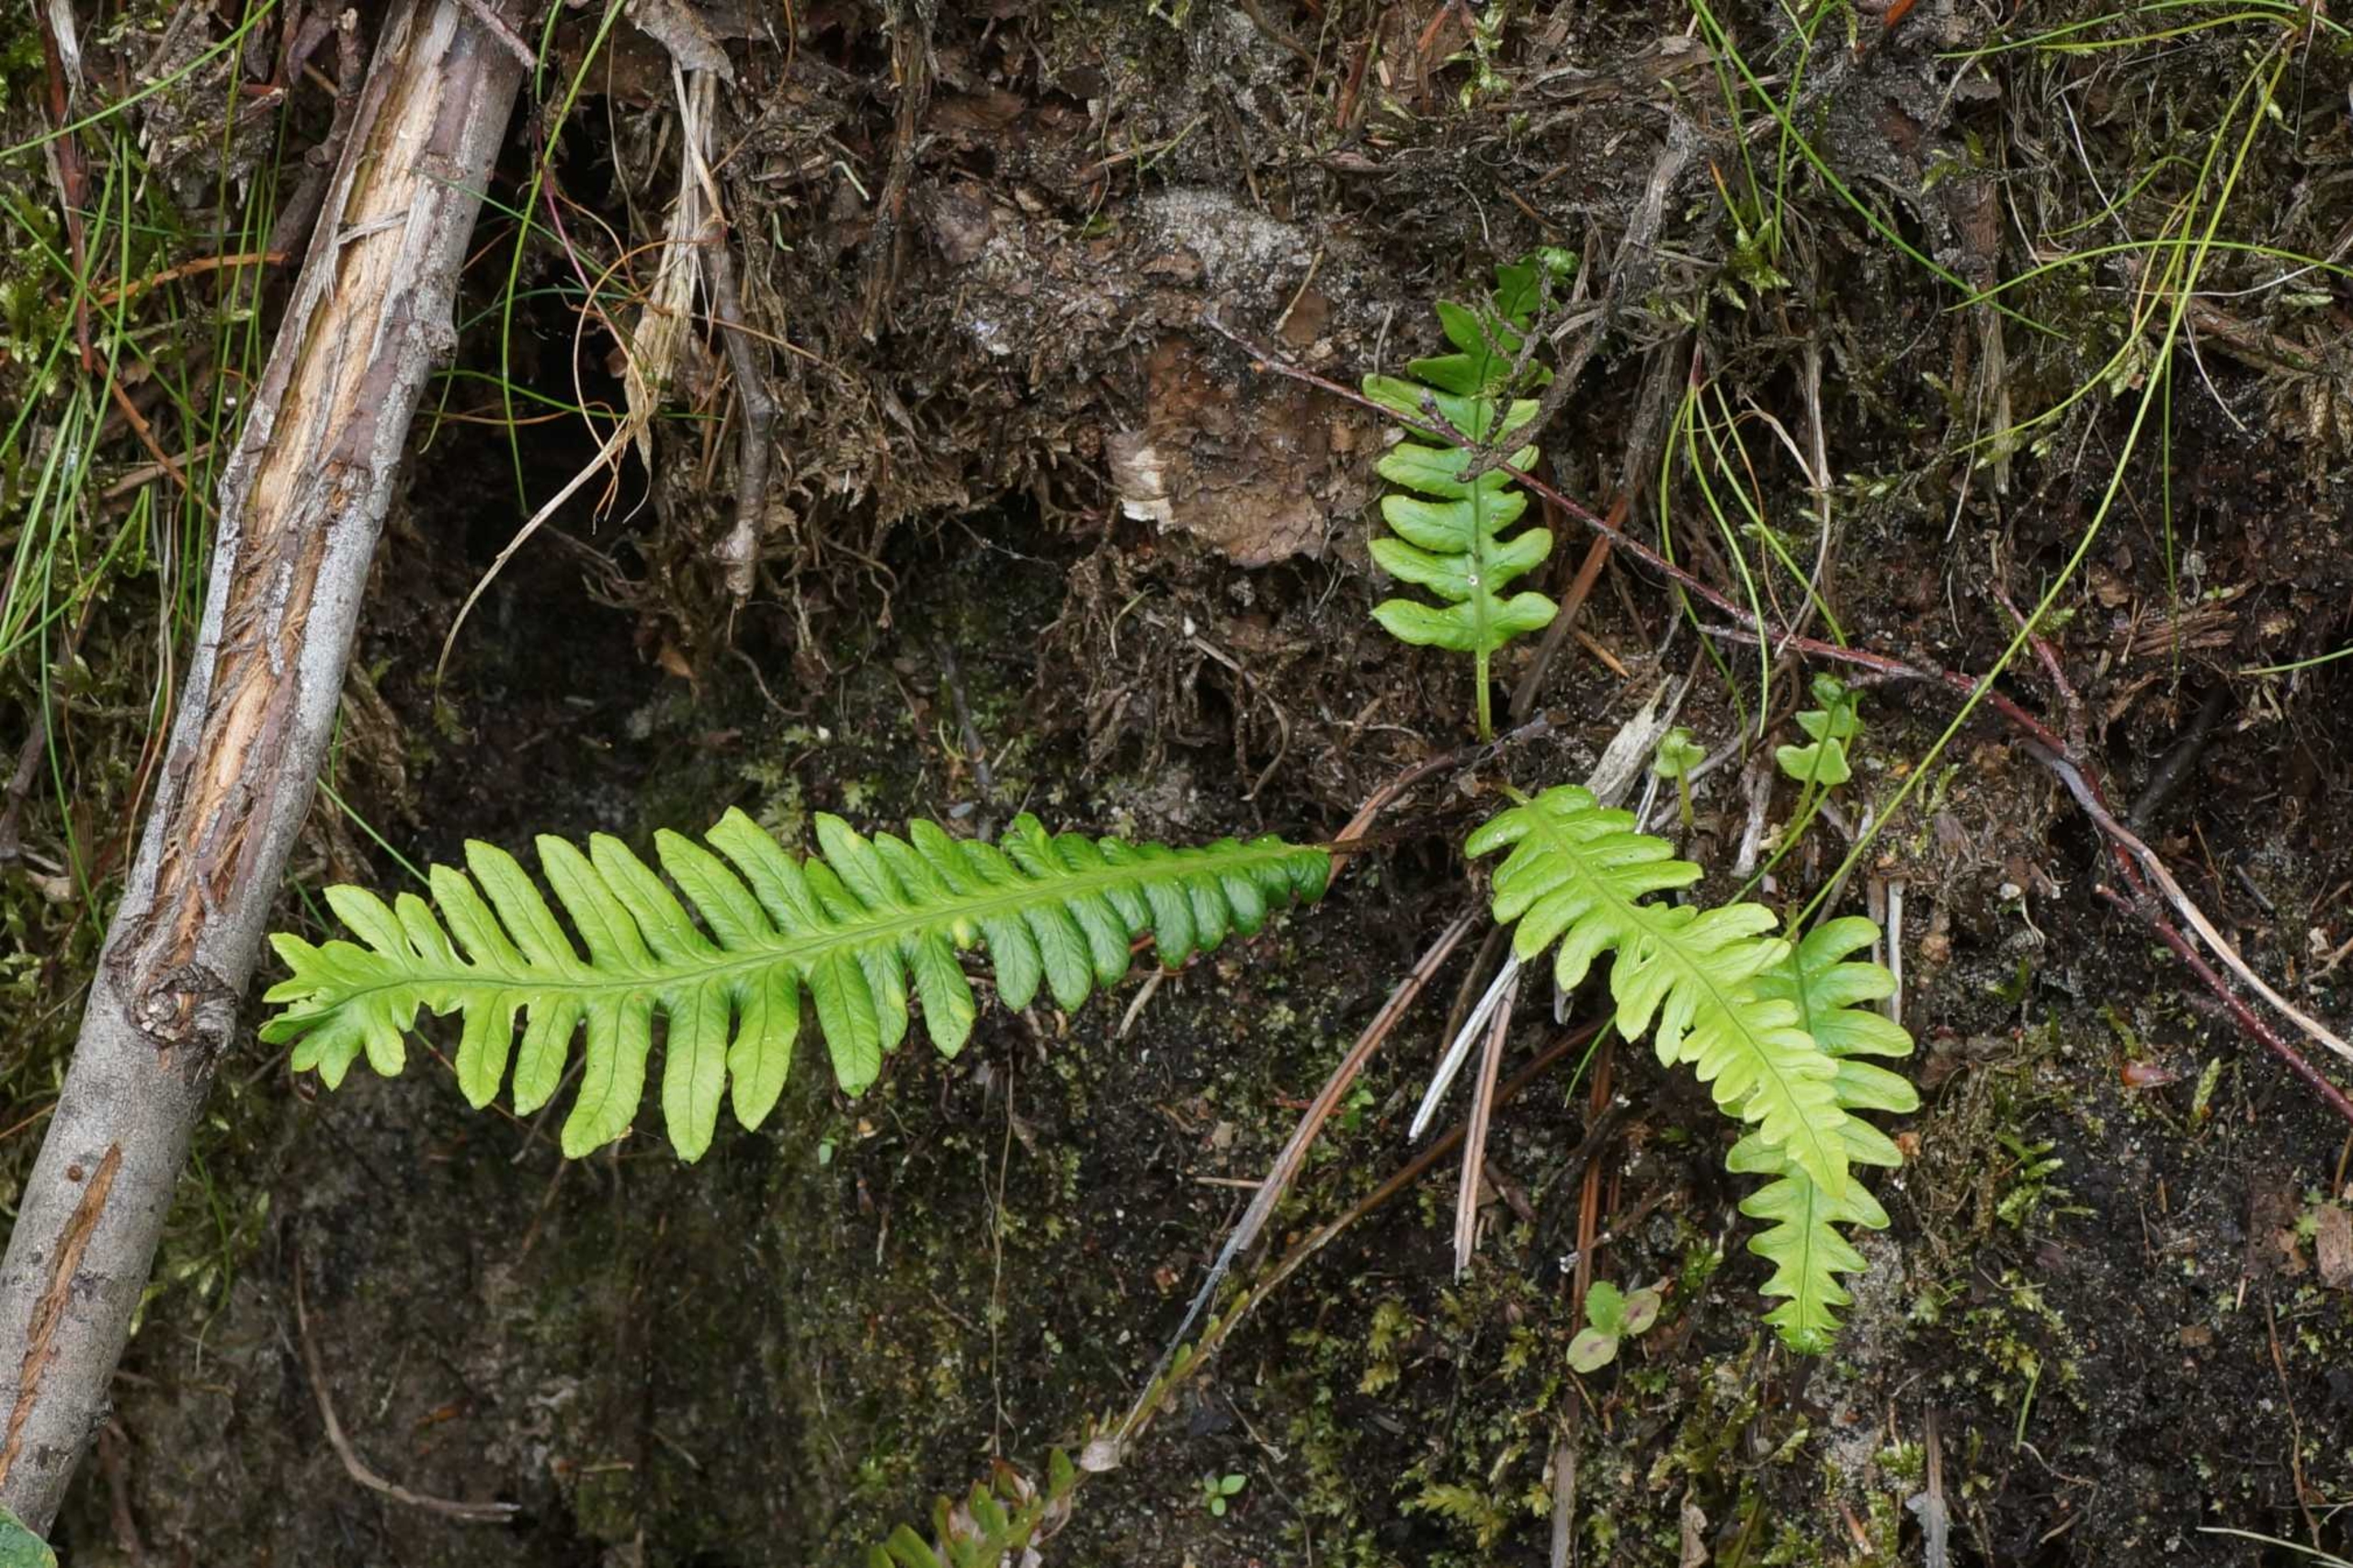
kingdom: Plantae
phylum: Tracheophyta
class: Polypodiopsida
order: Polypodiales
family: Blechnaceae
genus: Struthiopteris
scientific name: Struthiopteris spicant
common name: Kambregne
